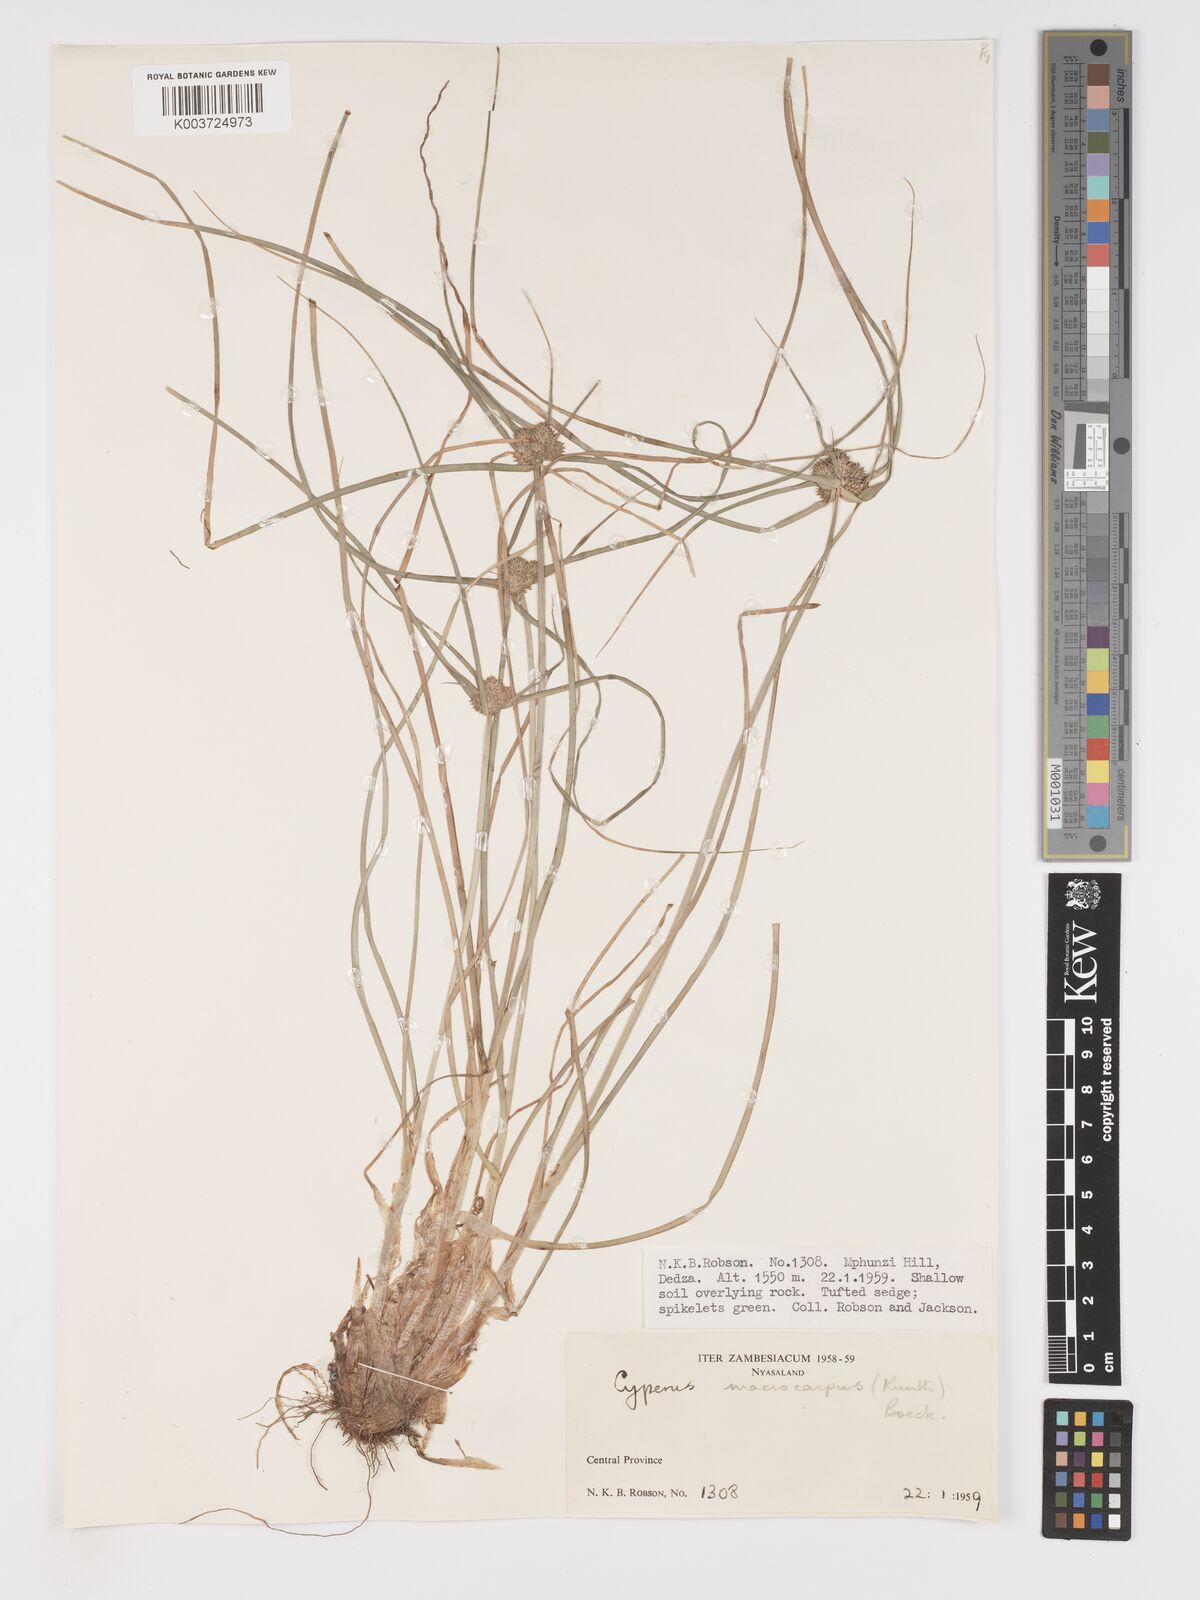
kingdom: Plantae
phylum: Tracheophyta
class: Liliopsida
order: Poales
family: Cyperaceae
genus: Cyperus
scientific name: Cyperus trigonellus
